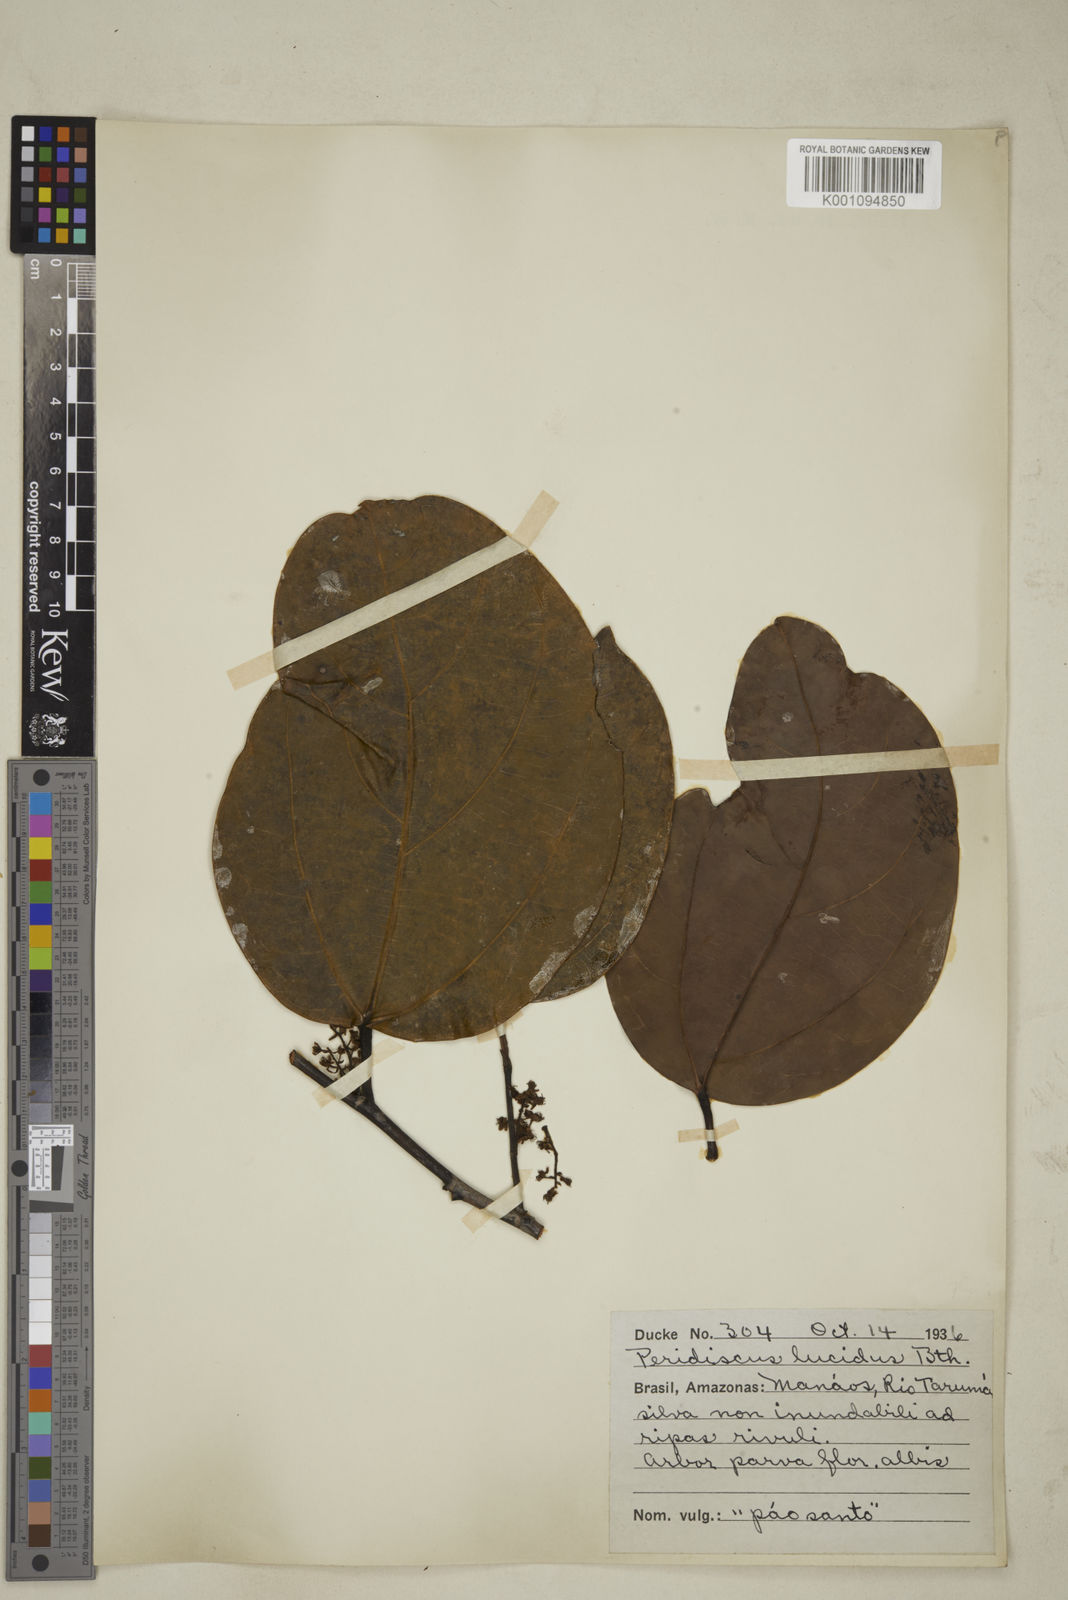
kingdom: Plantae
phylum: Tracheophyta
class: Magnoliopsida
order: Saxifragales
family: Peridiscaceae
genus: Peridiscus
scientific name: Peridiscus lucidus
